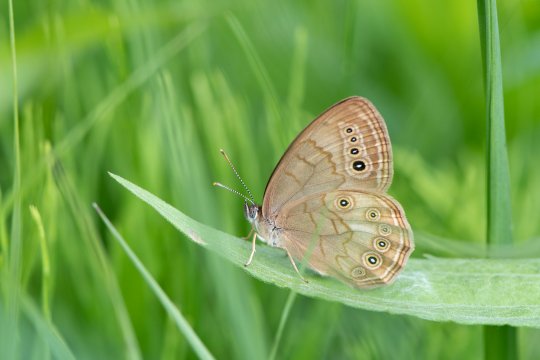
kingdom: Animalia
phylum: Arthropoda
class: Insecta
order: Lepidoptera
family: Nymphalidae
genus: Lethe
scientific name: Lethe eurydice
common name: Eyed Brown
